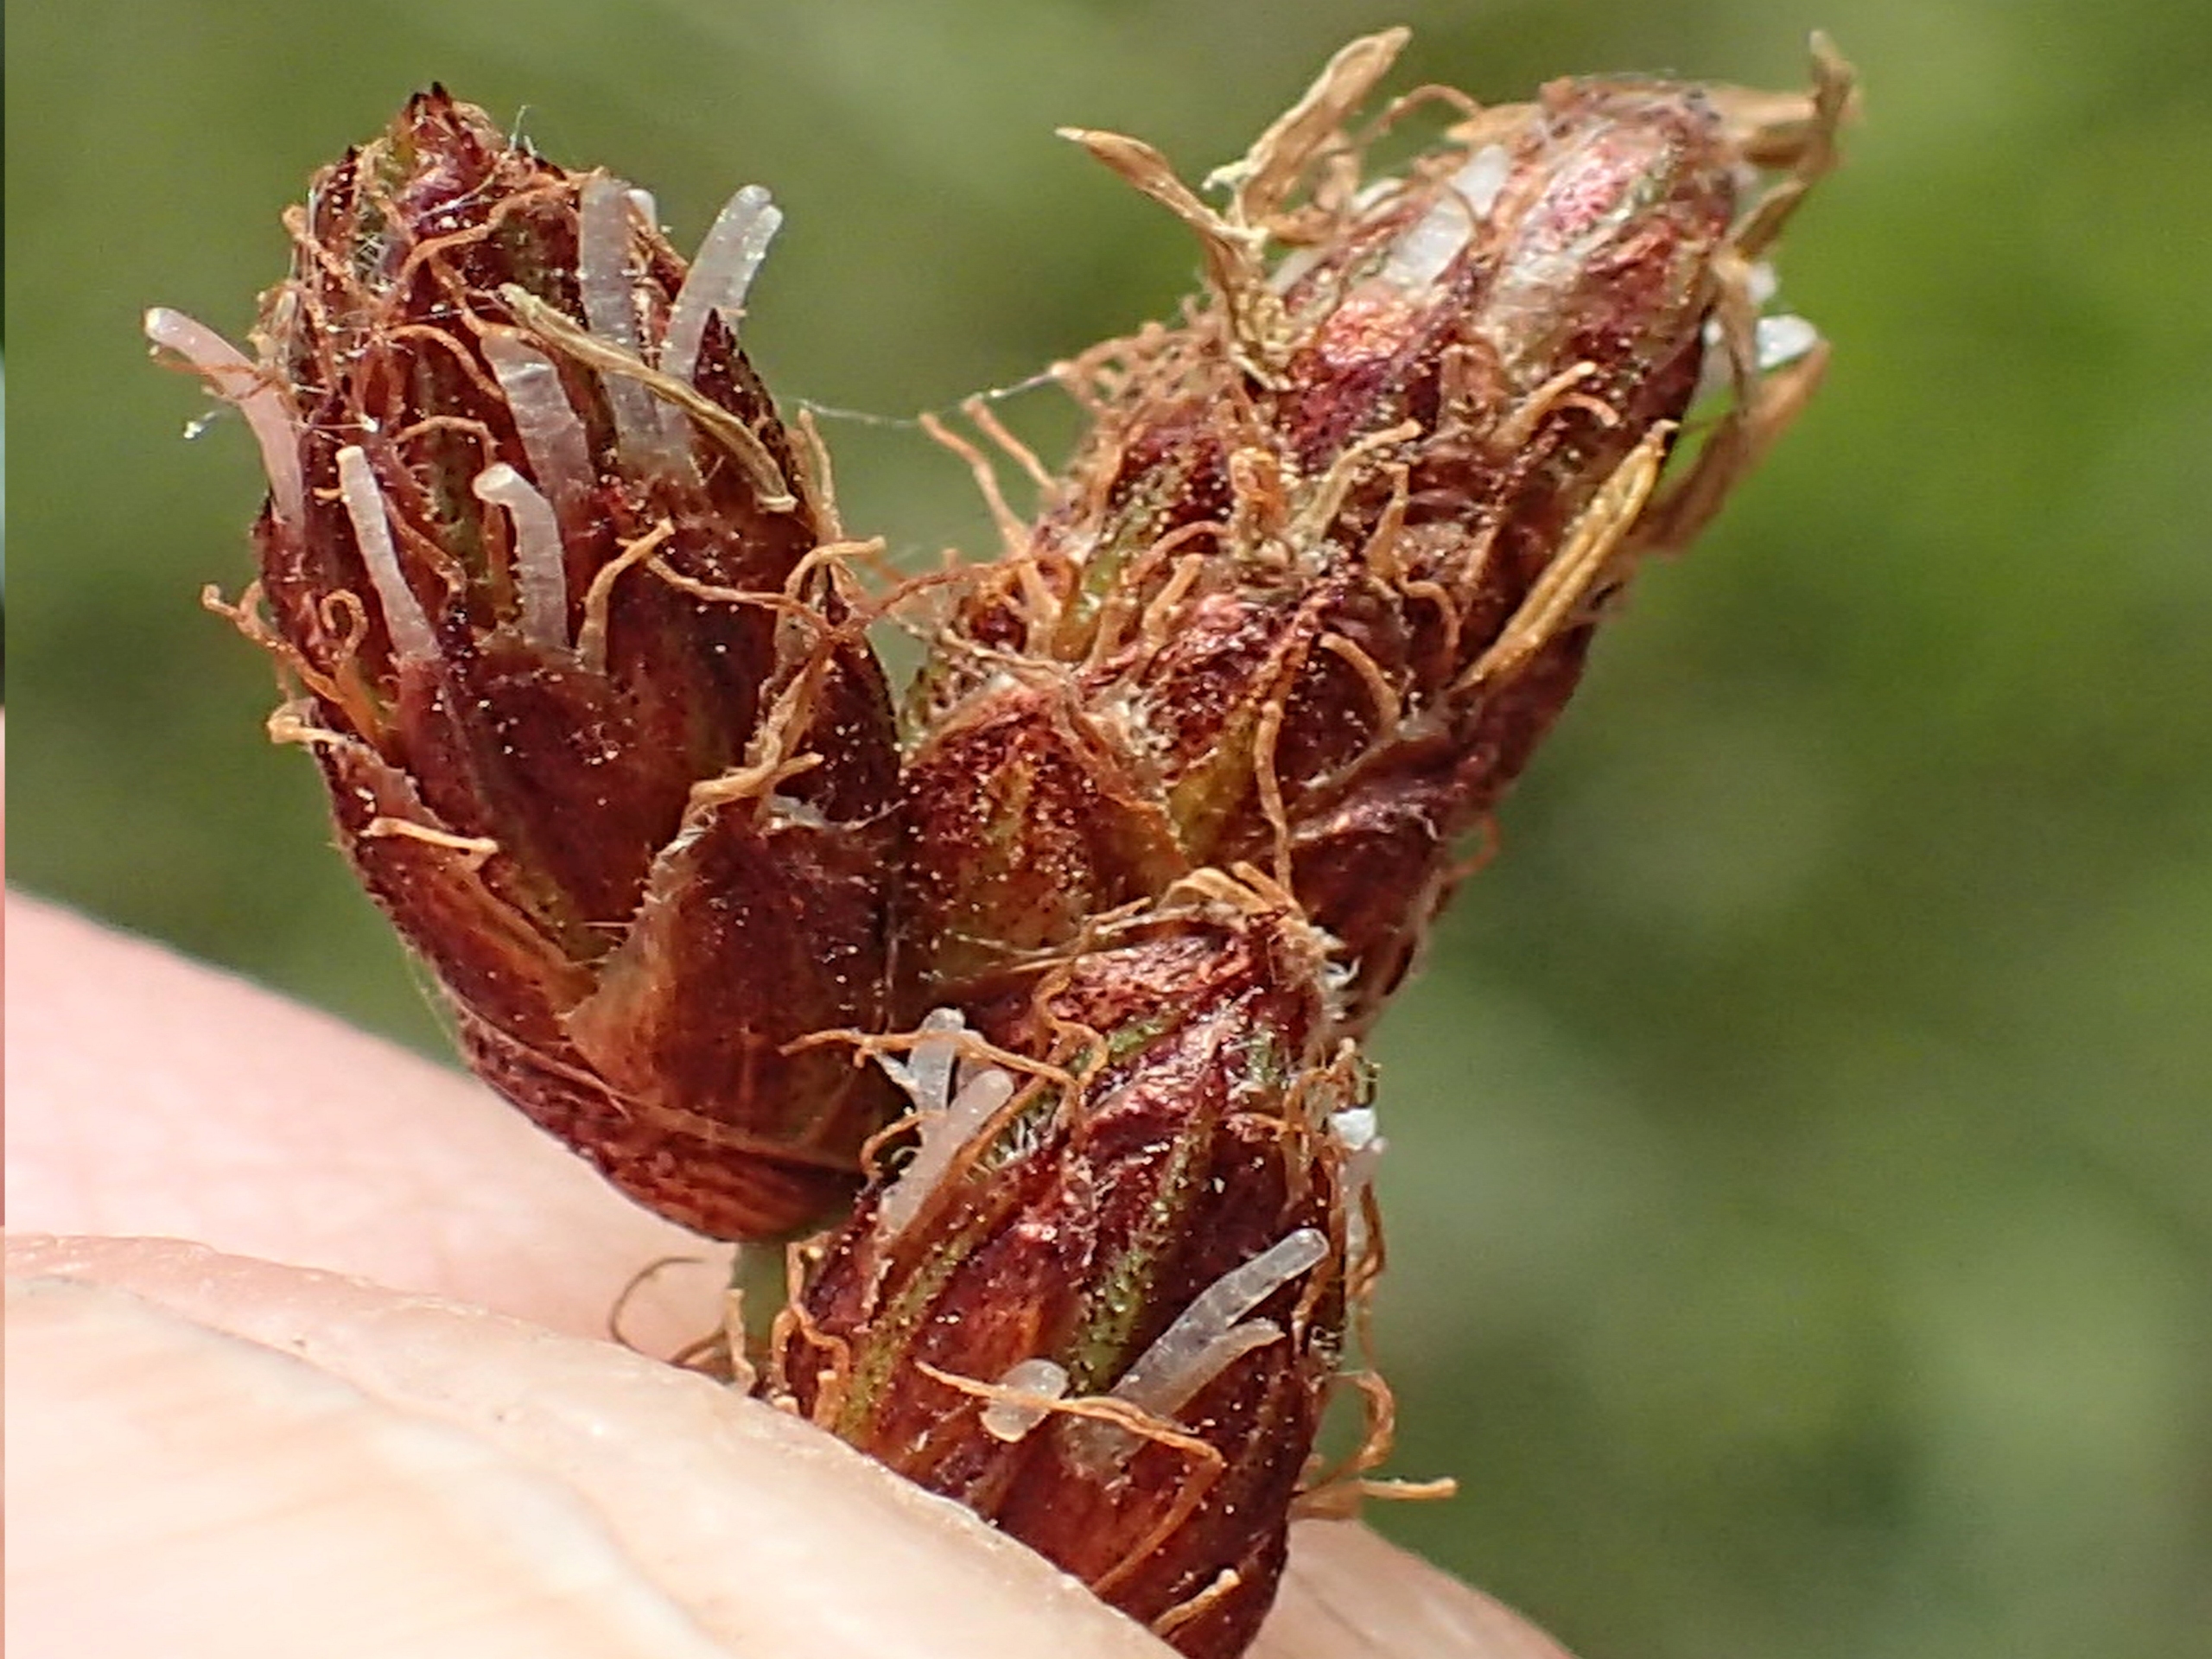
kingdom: Plantae
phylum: Tracheophyta
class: Liliopsida
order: Poales
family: Cyperaceae
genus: Schoenoplectus
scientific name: Schoenoplectus tabernaemontani
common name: Blågrøn kogleaks
